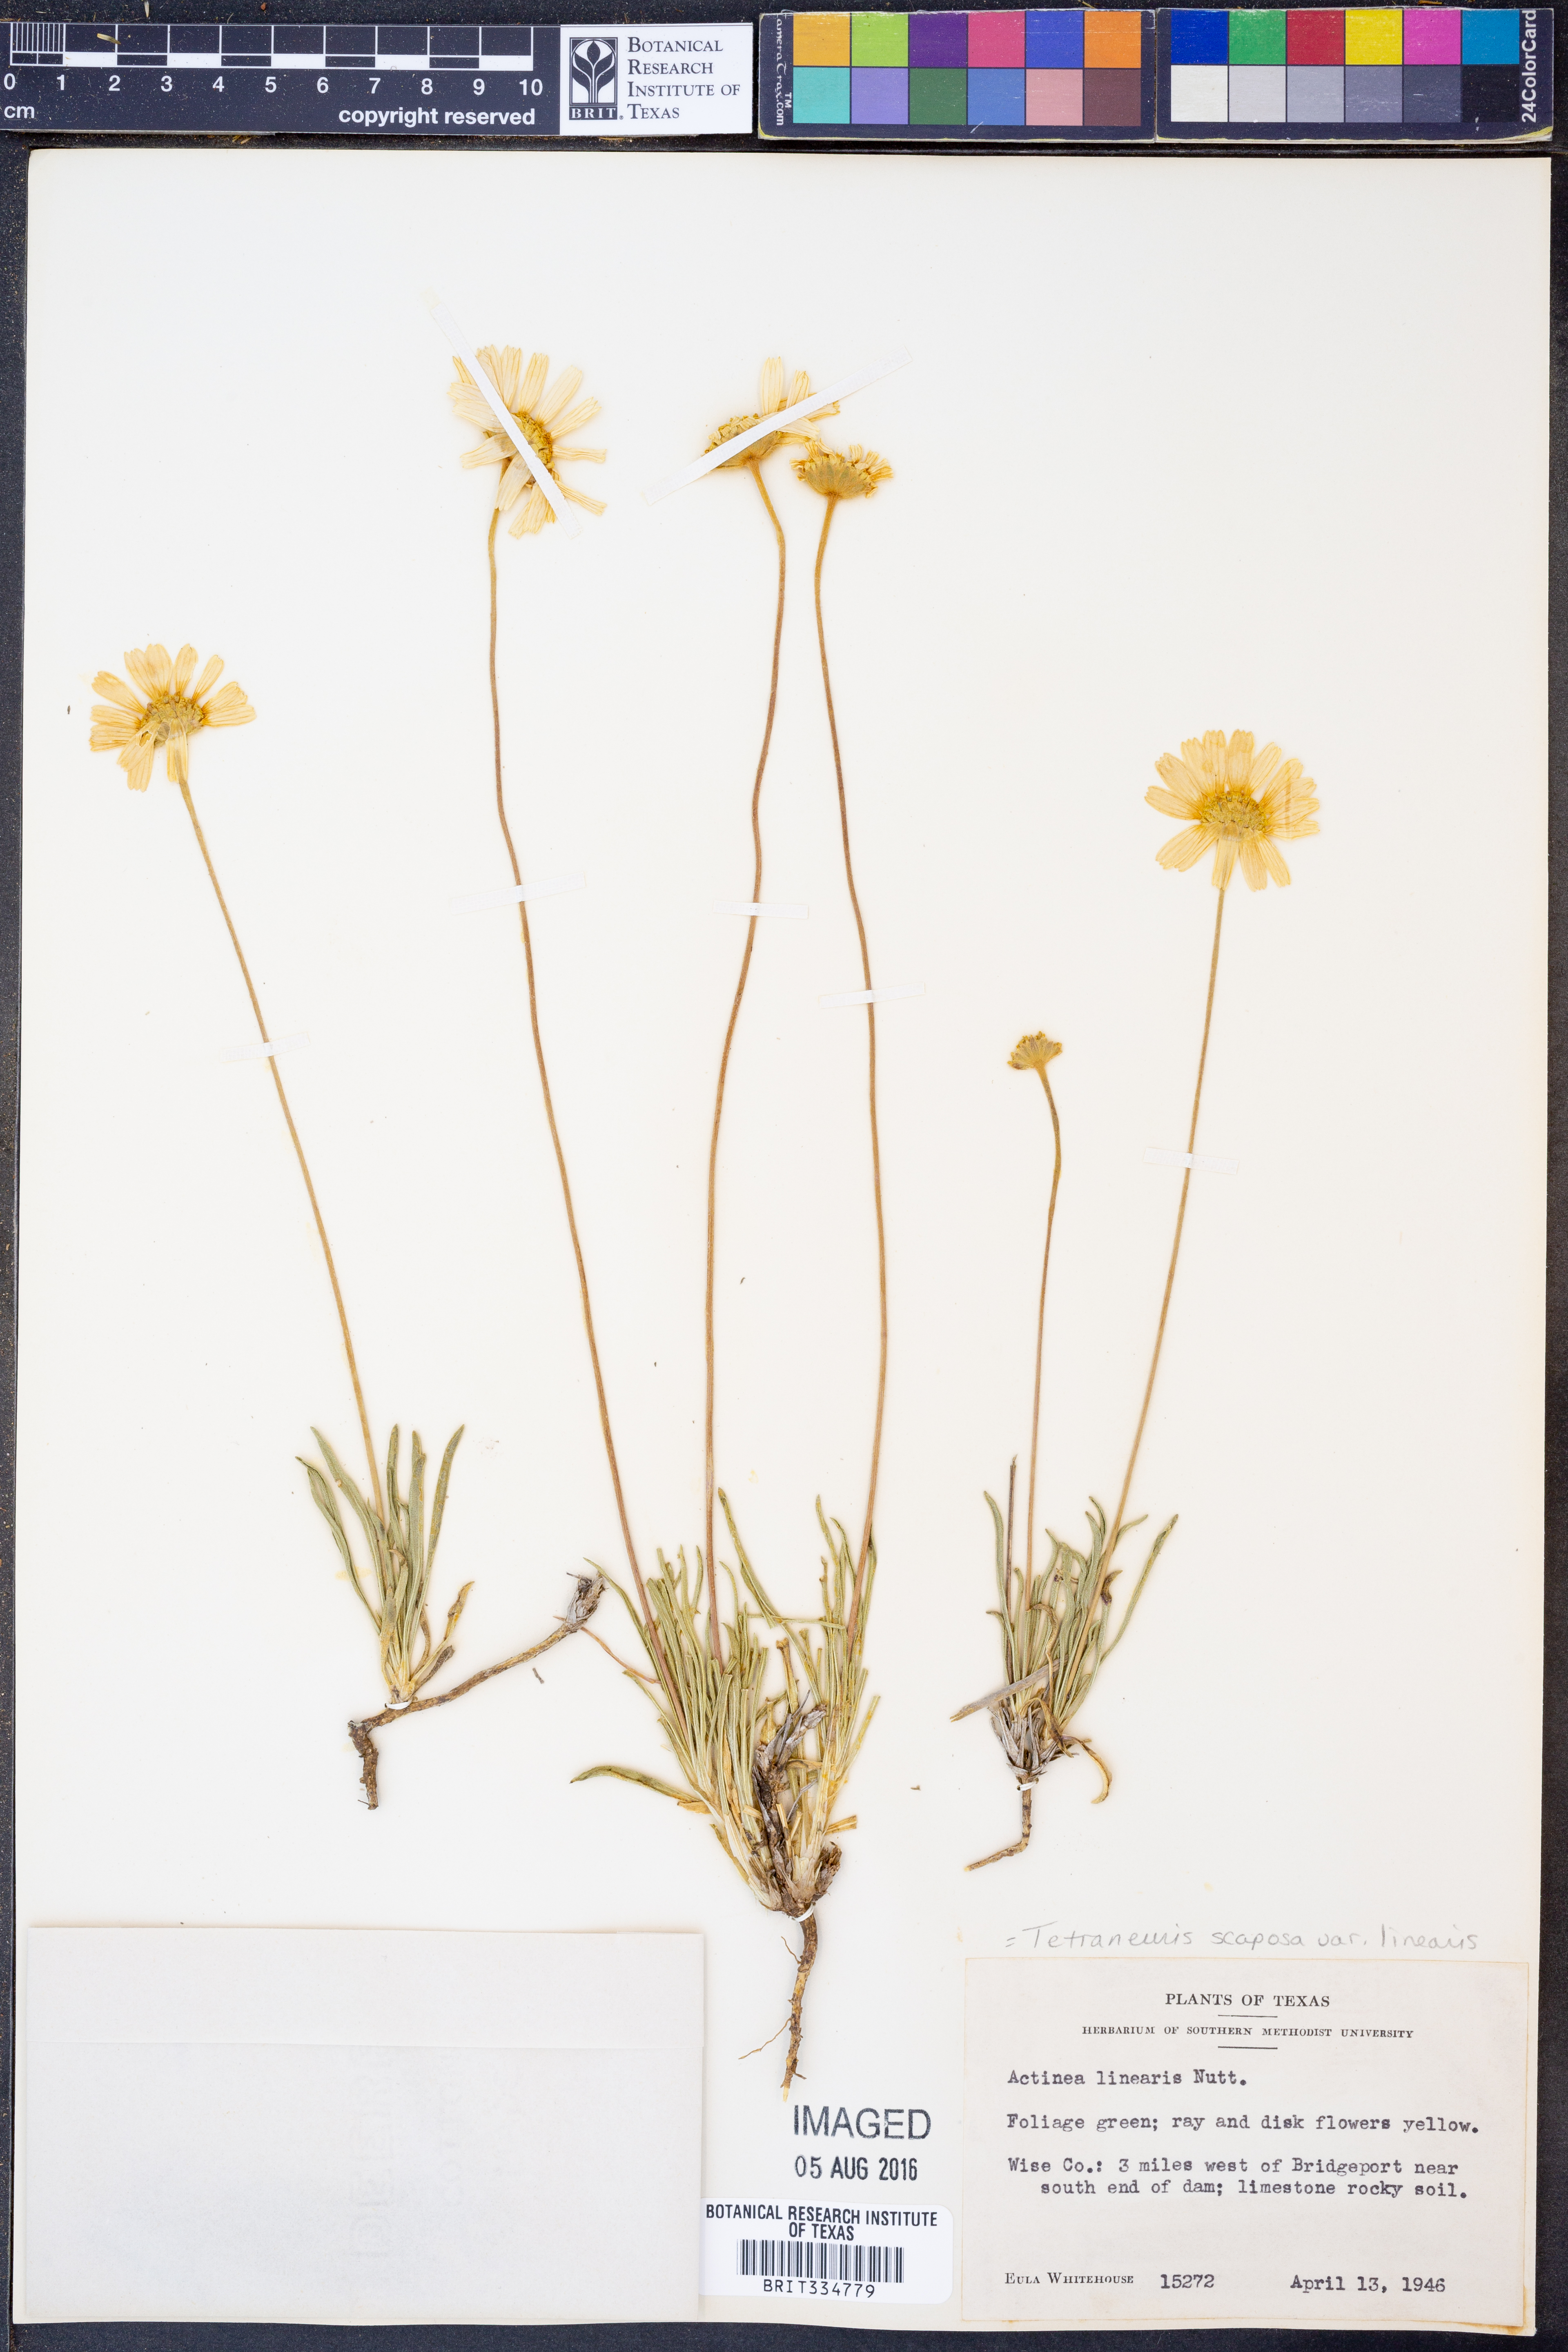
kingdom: Plantae
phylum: Tracheophyta
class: Magnoliopsida
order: Asterales
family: Asteraceae
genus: Tetraneuris
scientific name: Tetraneuris scaposa
